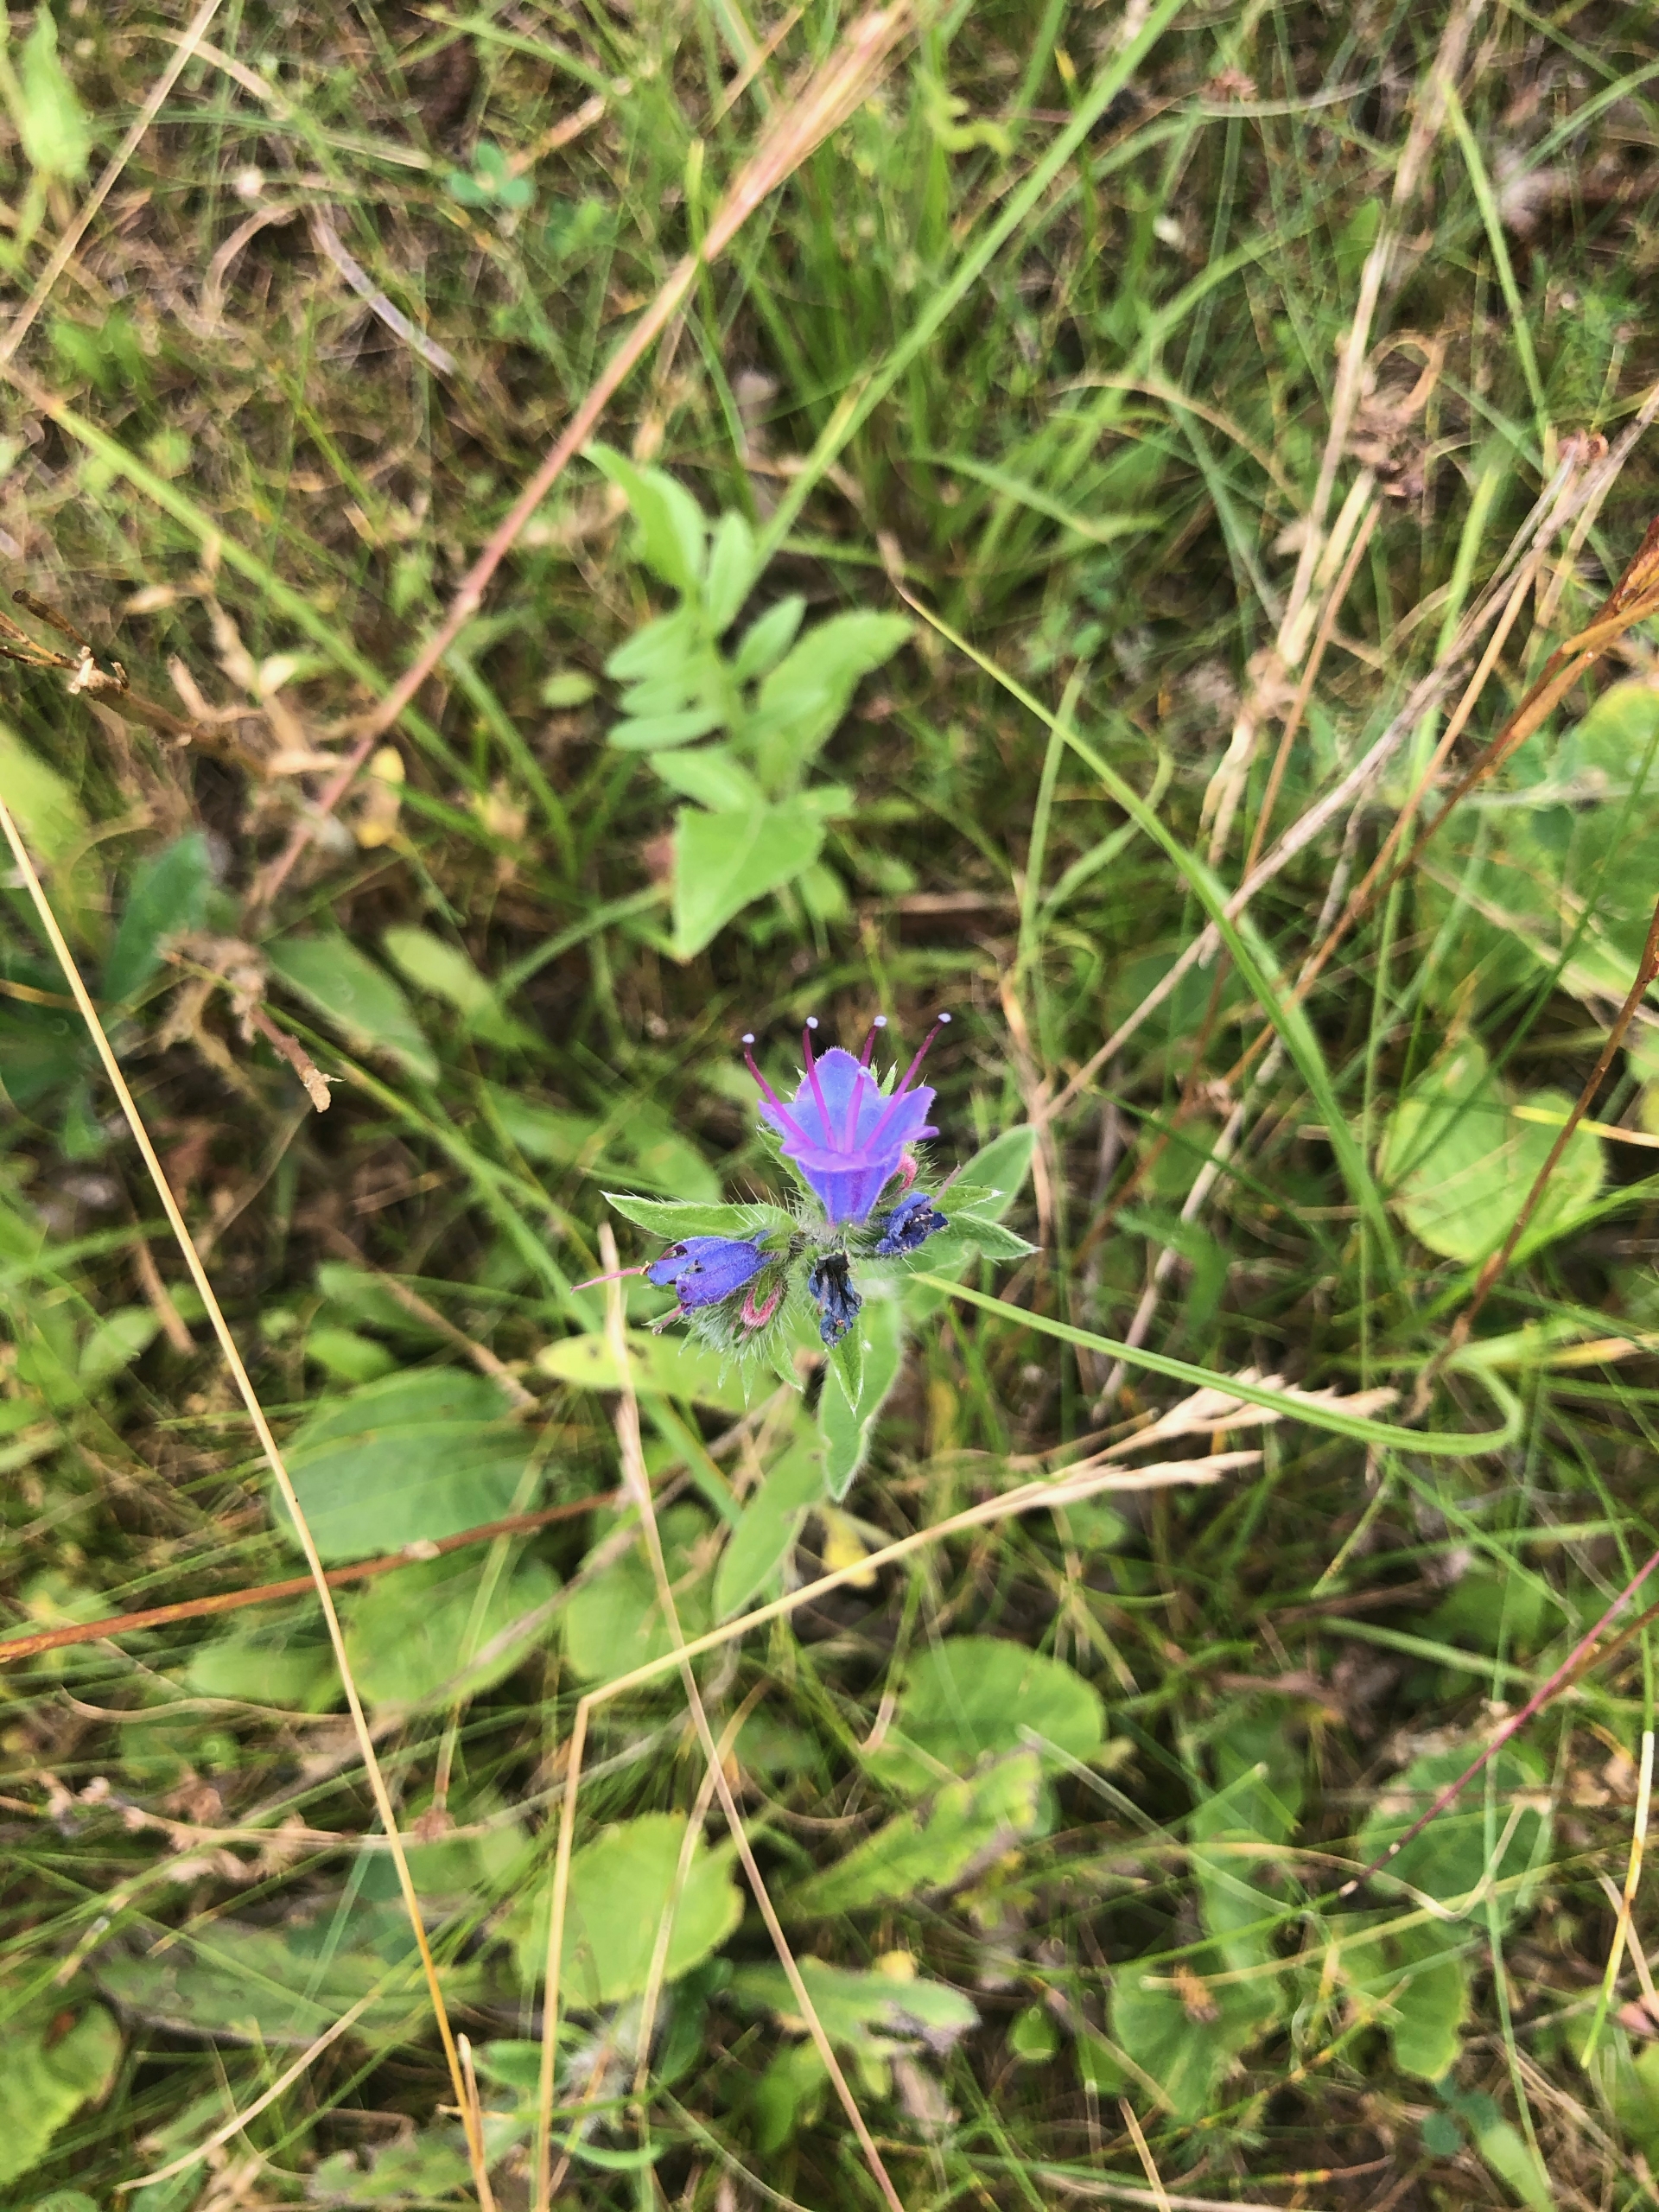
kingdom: Plantae
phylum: Tracheophyta
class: Magnoliopsida
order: Boraginales
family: Boraginaceae
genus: Echium
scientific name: Echium vulgare
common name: Slangehoved
